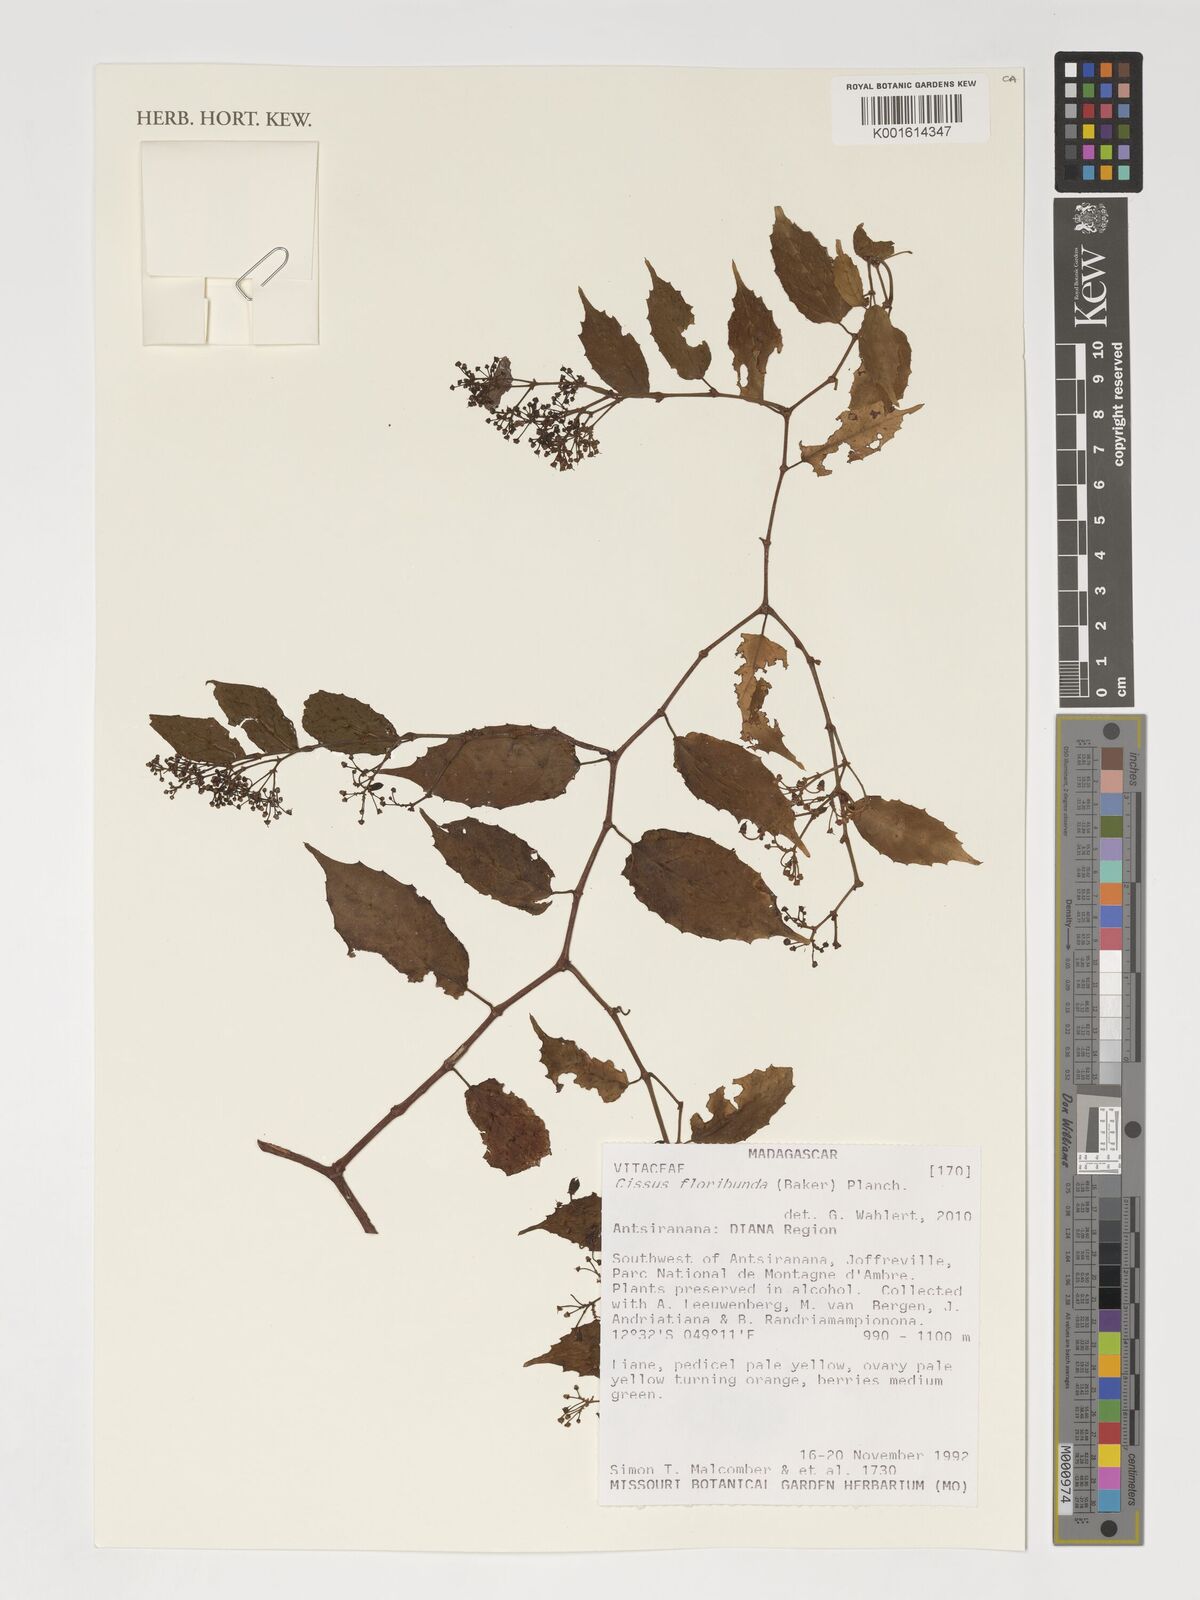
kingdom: Plantae
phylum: Tracheophyta
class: Magnoliopsida
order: Vitales
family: Vitaceae
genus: Cissus
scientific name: Cissus floribunda
